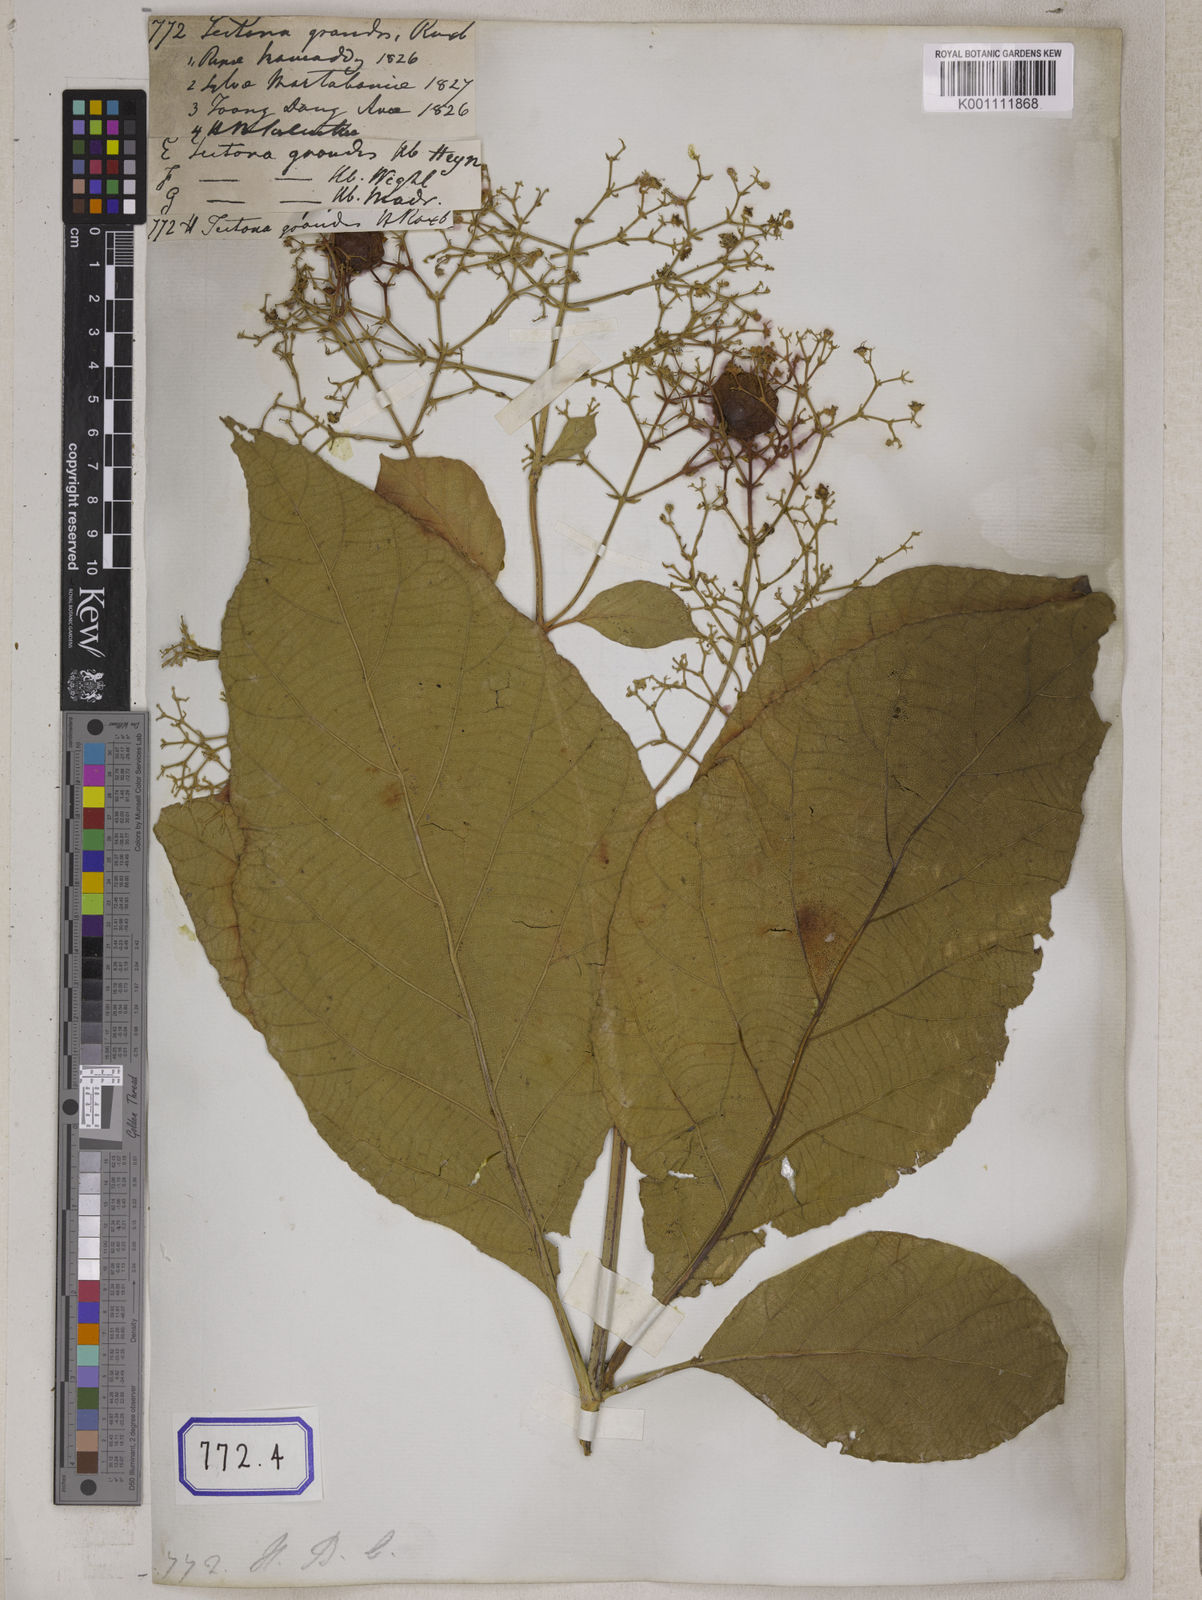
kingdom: Plantae
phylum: Tracheophyta
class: Magnoliopsida
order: Lamiales
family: Lamiaceae
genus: Tectona
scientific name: Tectona
